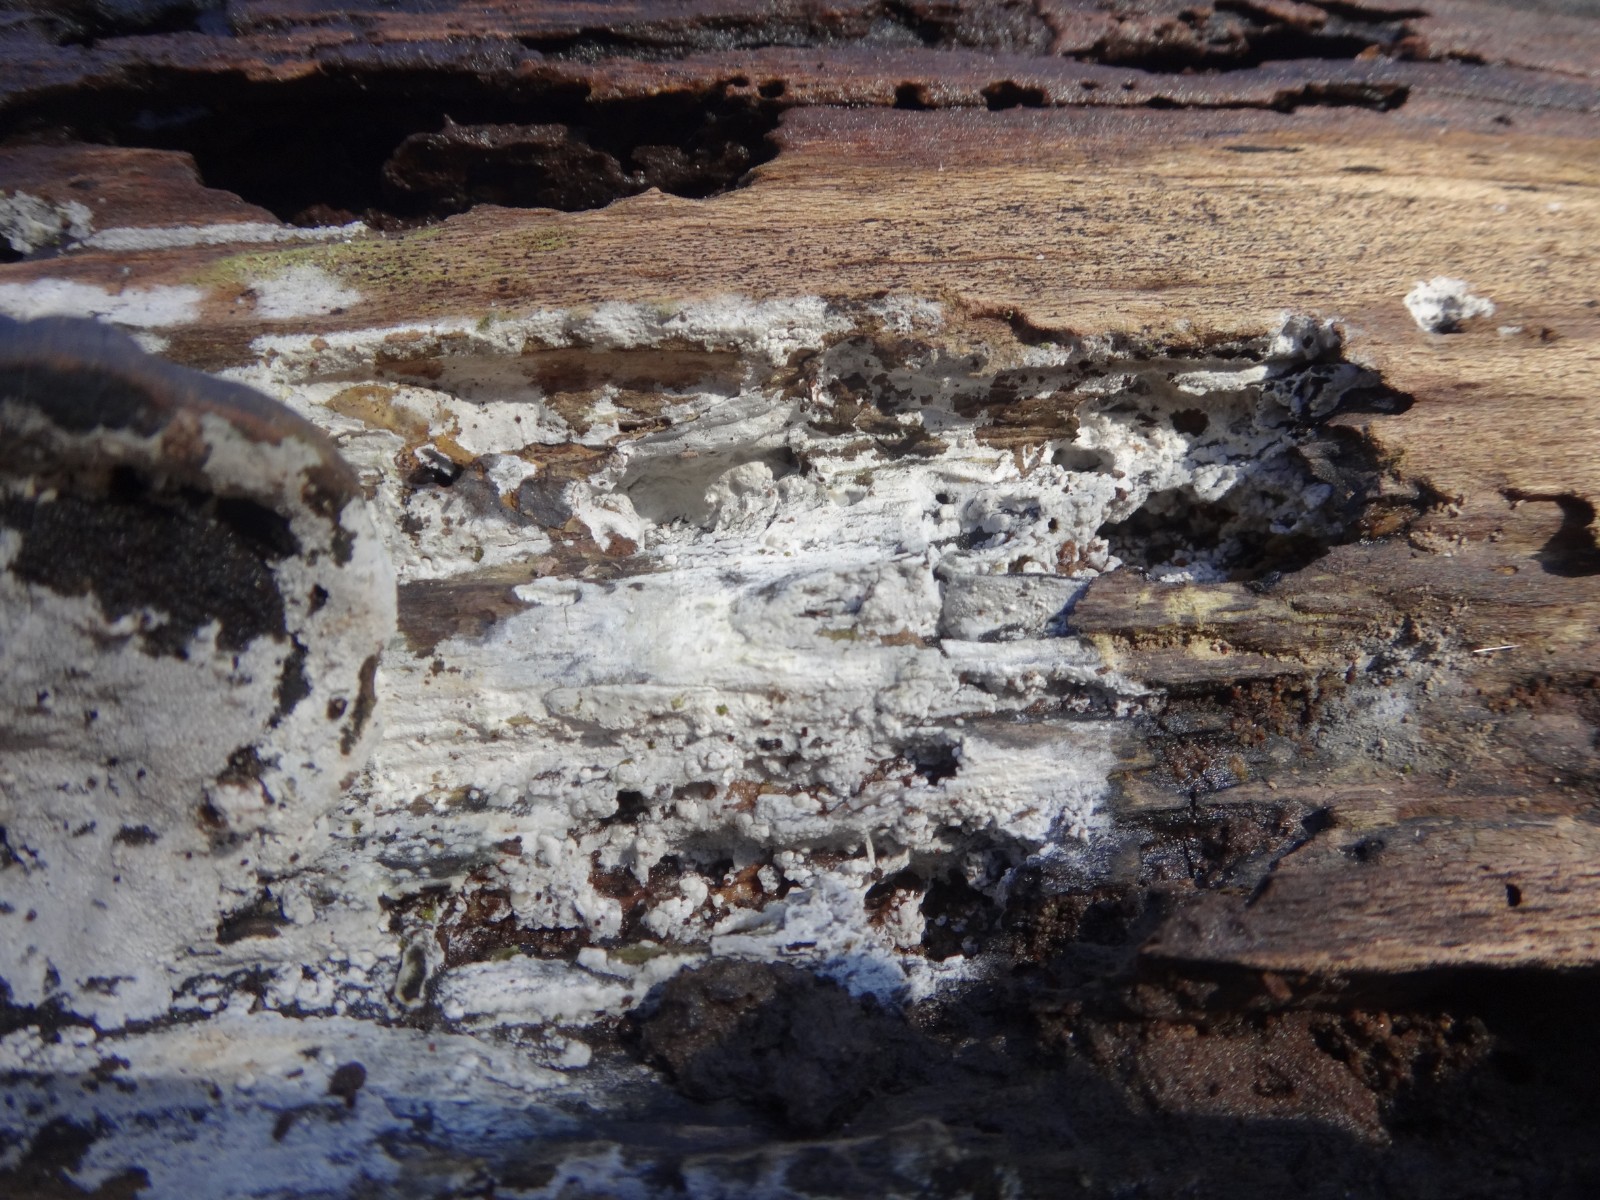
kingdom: Fungi
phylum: Basidiomycota
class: Agaricomycetes
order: Cantharellales
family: Hydnaceae
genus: Sistotrema
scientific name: Sistotrema brinkmannii
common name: bønnesporet kroneskorpe
